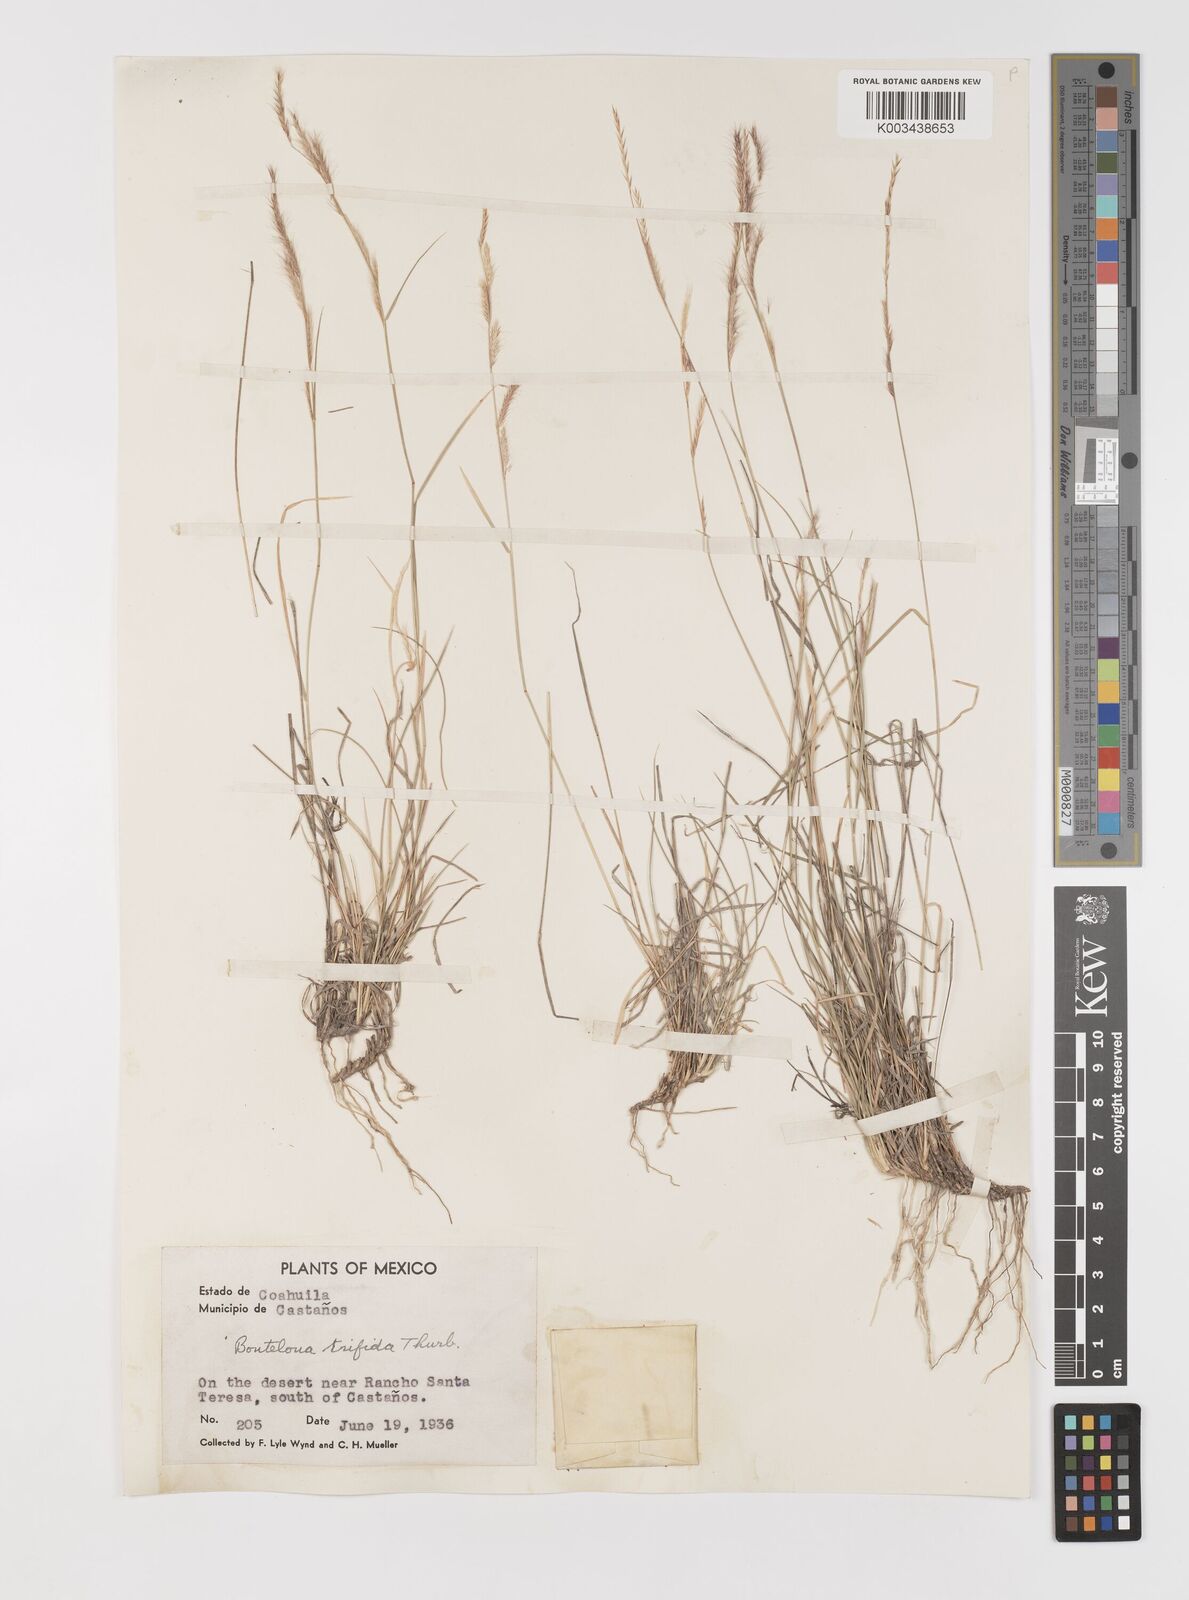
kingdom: Plantae
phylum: Tracheophyta
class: Liliopsida
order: Poales
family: Poaceae
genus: Bouteloua
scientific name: Bouteloua
